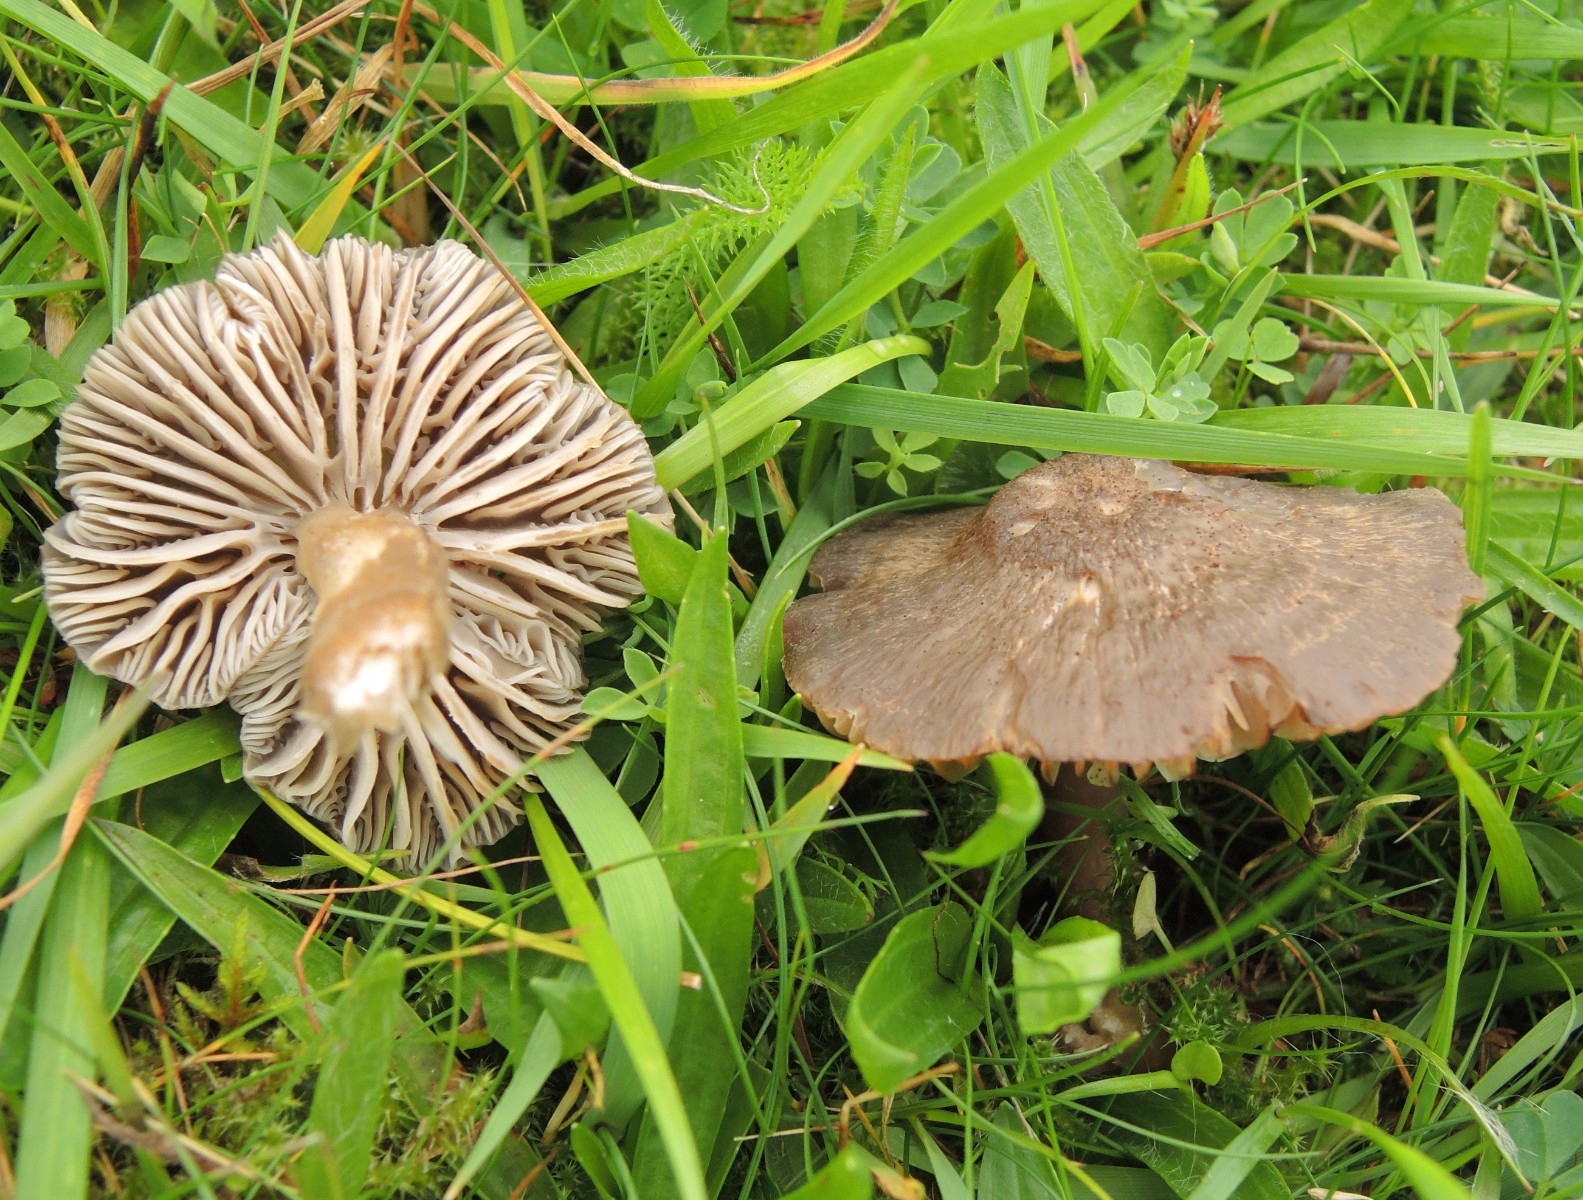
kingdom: Fungi
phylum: Basidiomycota
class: Agaricomycetes
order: Agaricales
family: Hygrophoraceae
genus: Neohygrocybe
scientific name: Neohygrocybe nitrata
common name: stinkende vokshat
